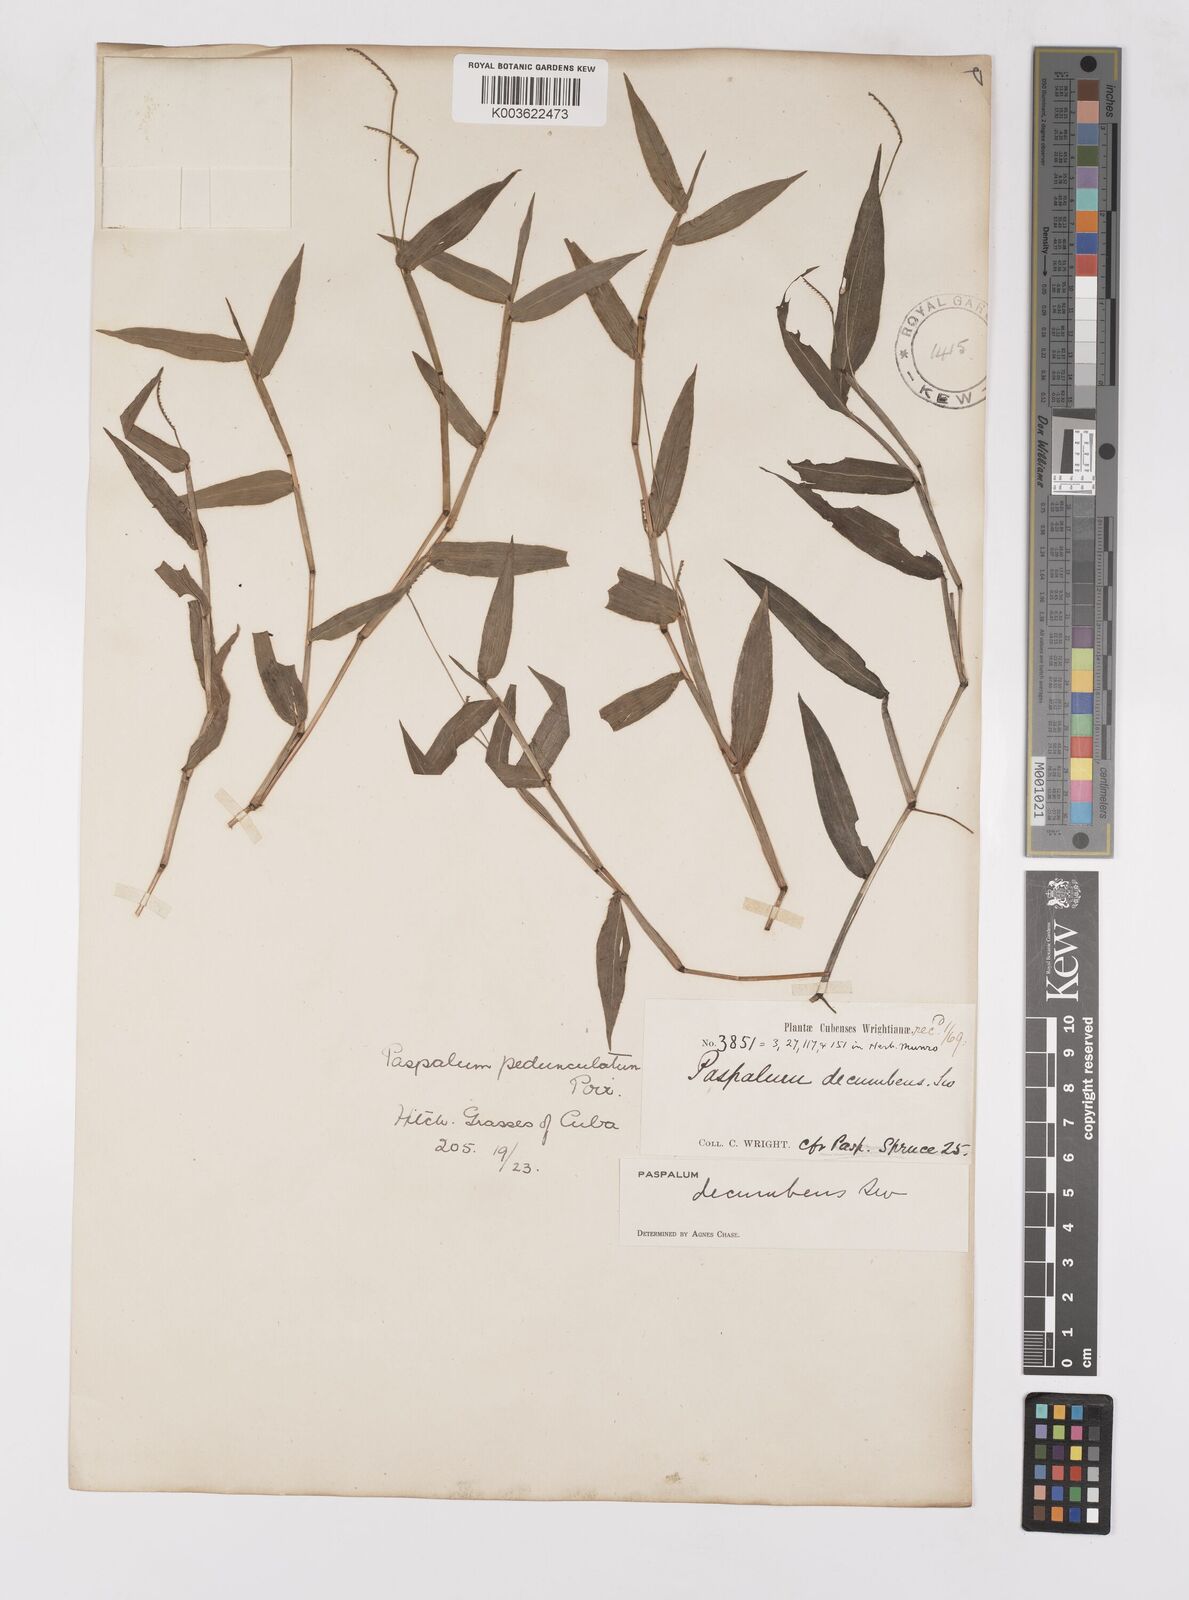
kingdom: Plantae
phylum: Tracheophyta
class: Liliopsida
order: Poales
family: Poaceae
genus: Paspalum
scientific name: Paspalum decumbens
